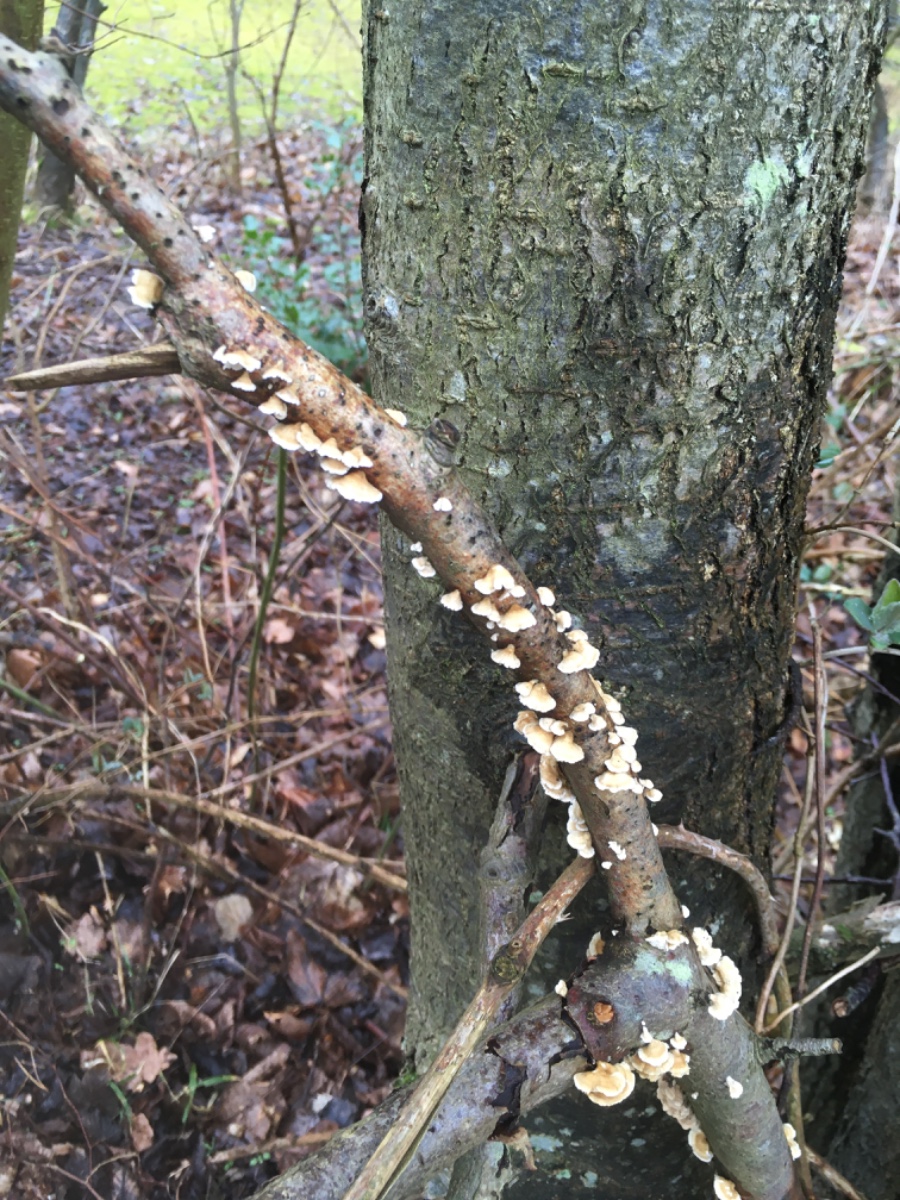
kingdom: Fungi
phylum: Basidiomycota
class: Agaricomycetes
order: Amylocorticiales
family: Amylocorticiaceae
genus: Plicaturopsis
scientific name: Plicaturopsis crispa
